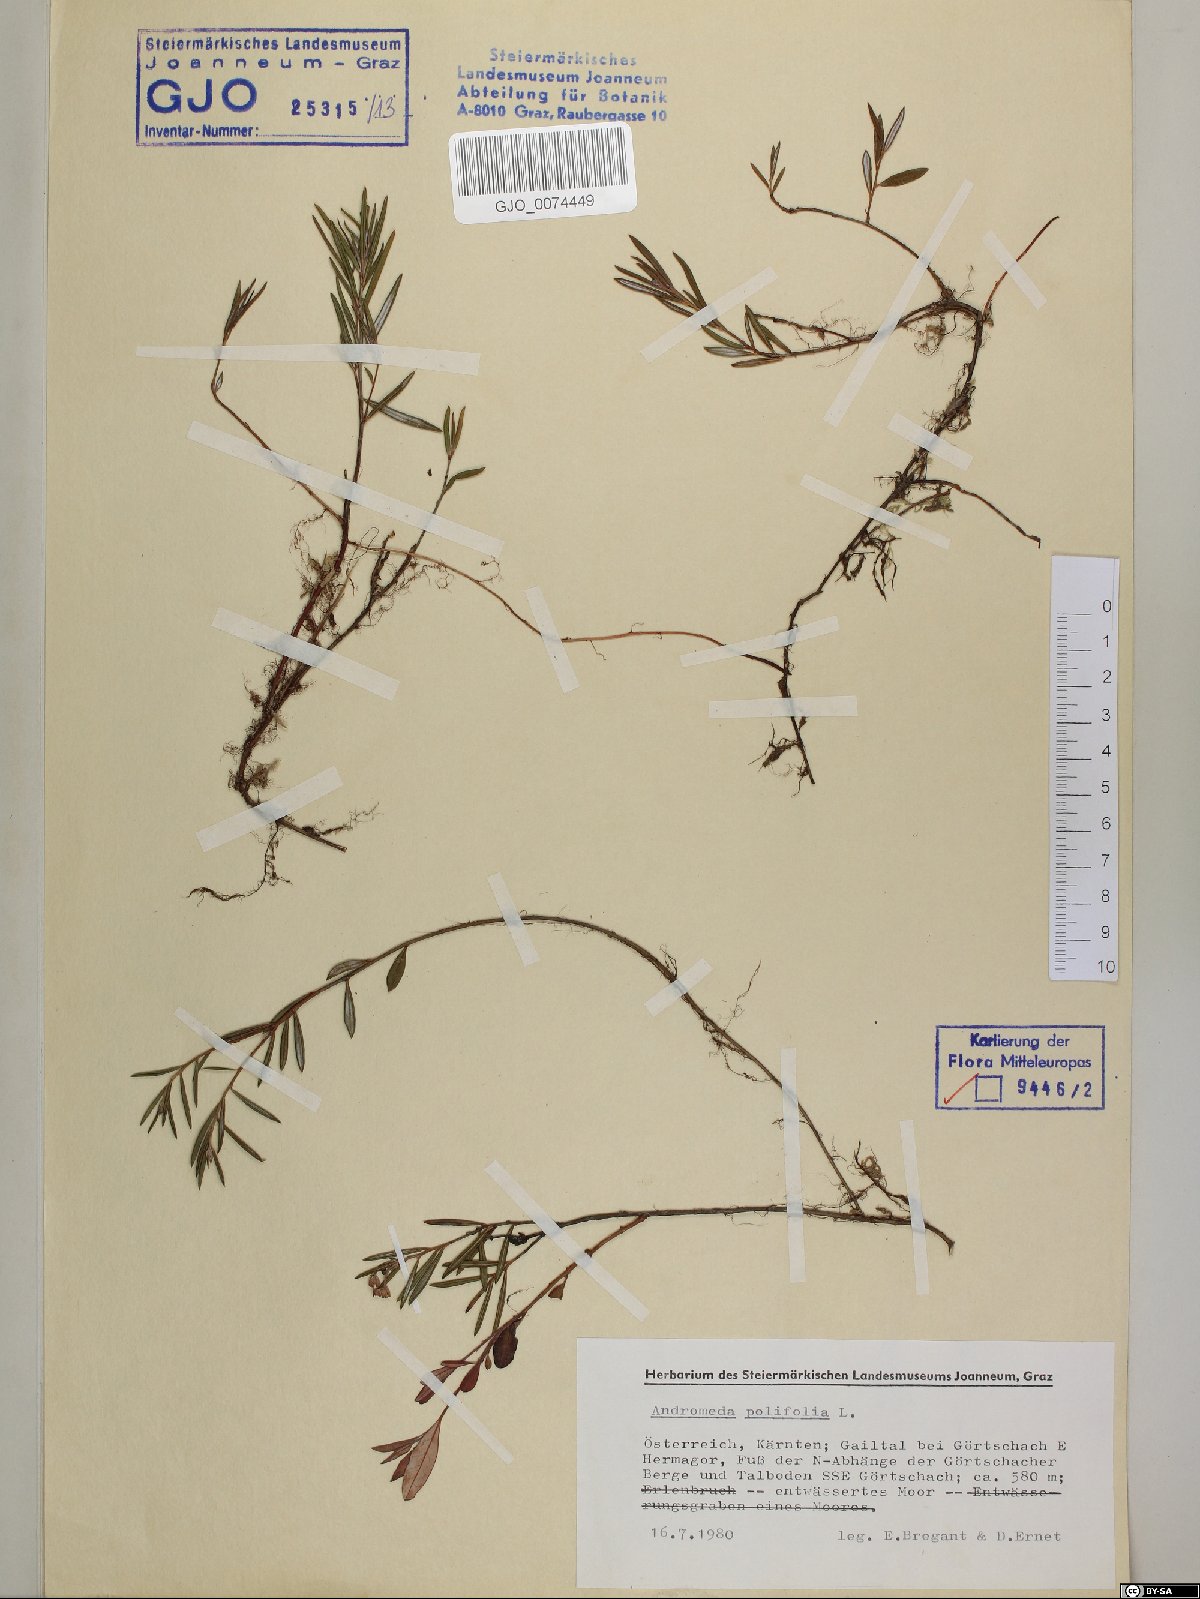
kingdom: Plantae
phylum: Tracheophyta
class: Magnoliopsida
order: Ericales
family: Ericaceae
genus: Andromeda
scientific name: Andromeda polifolia
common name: Bog-rosemary
